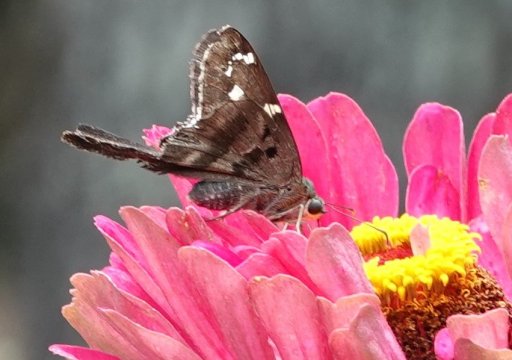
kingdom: Animalia
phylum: Arthropoda
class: Insecta
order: Lepidoptera
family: Hesperiidae
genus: Urbanus
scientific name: Urbanus proteus
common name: Long-tailed Skipper
